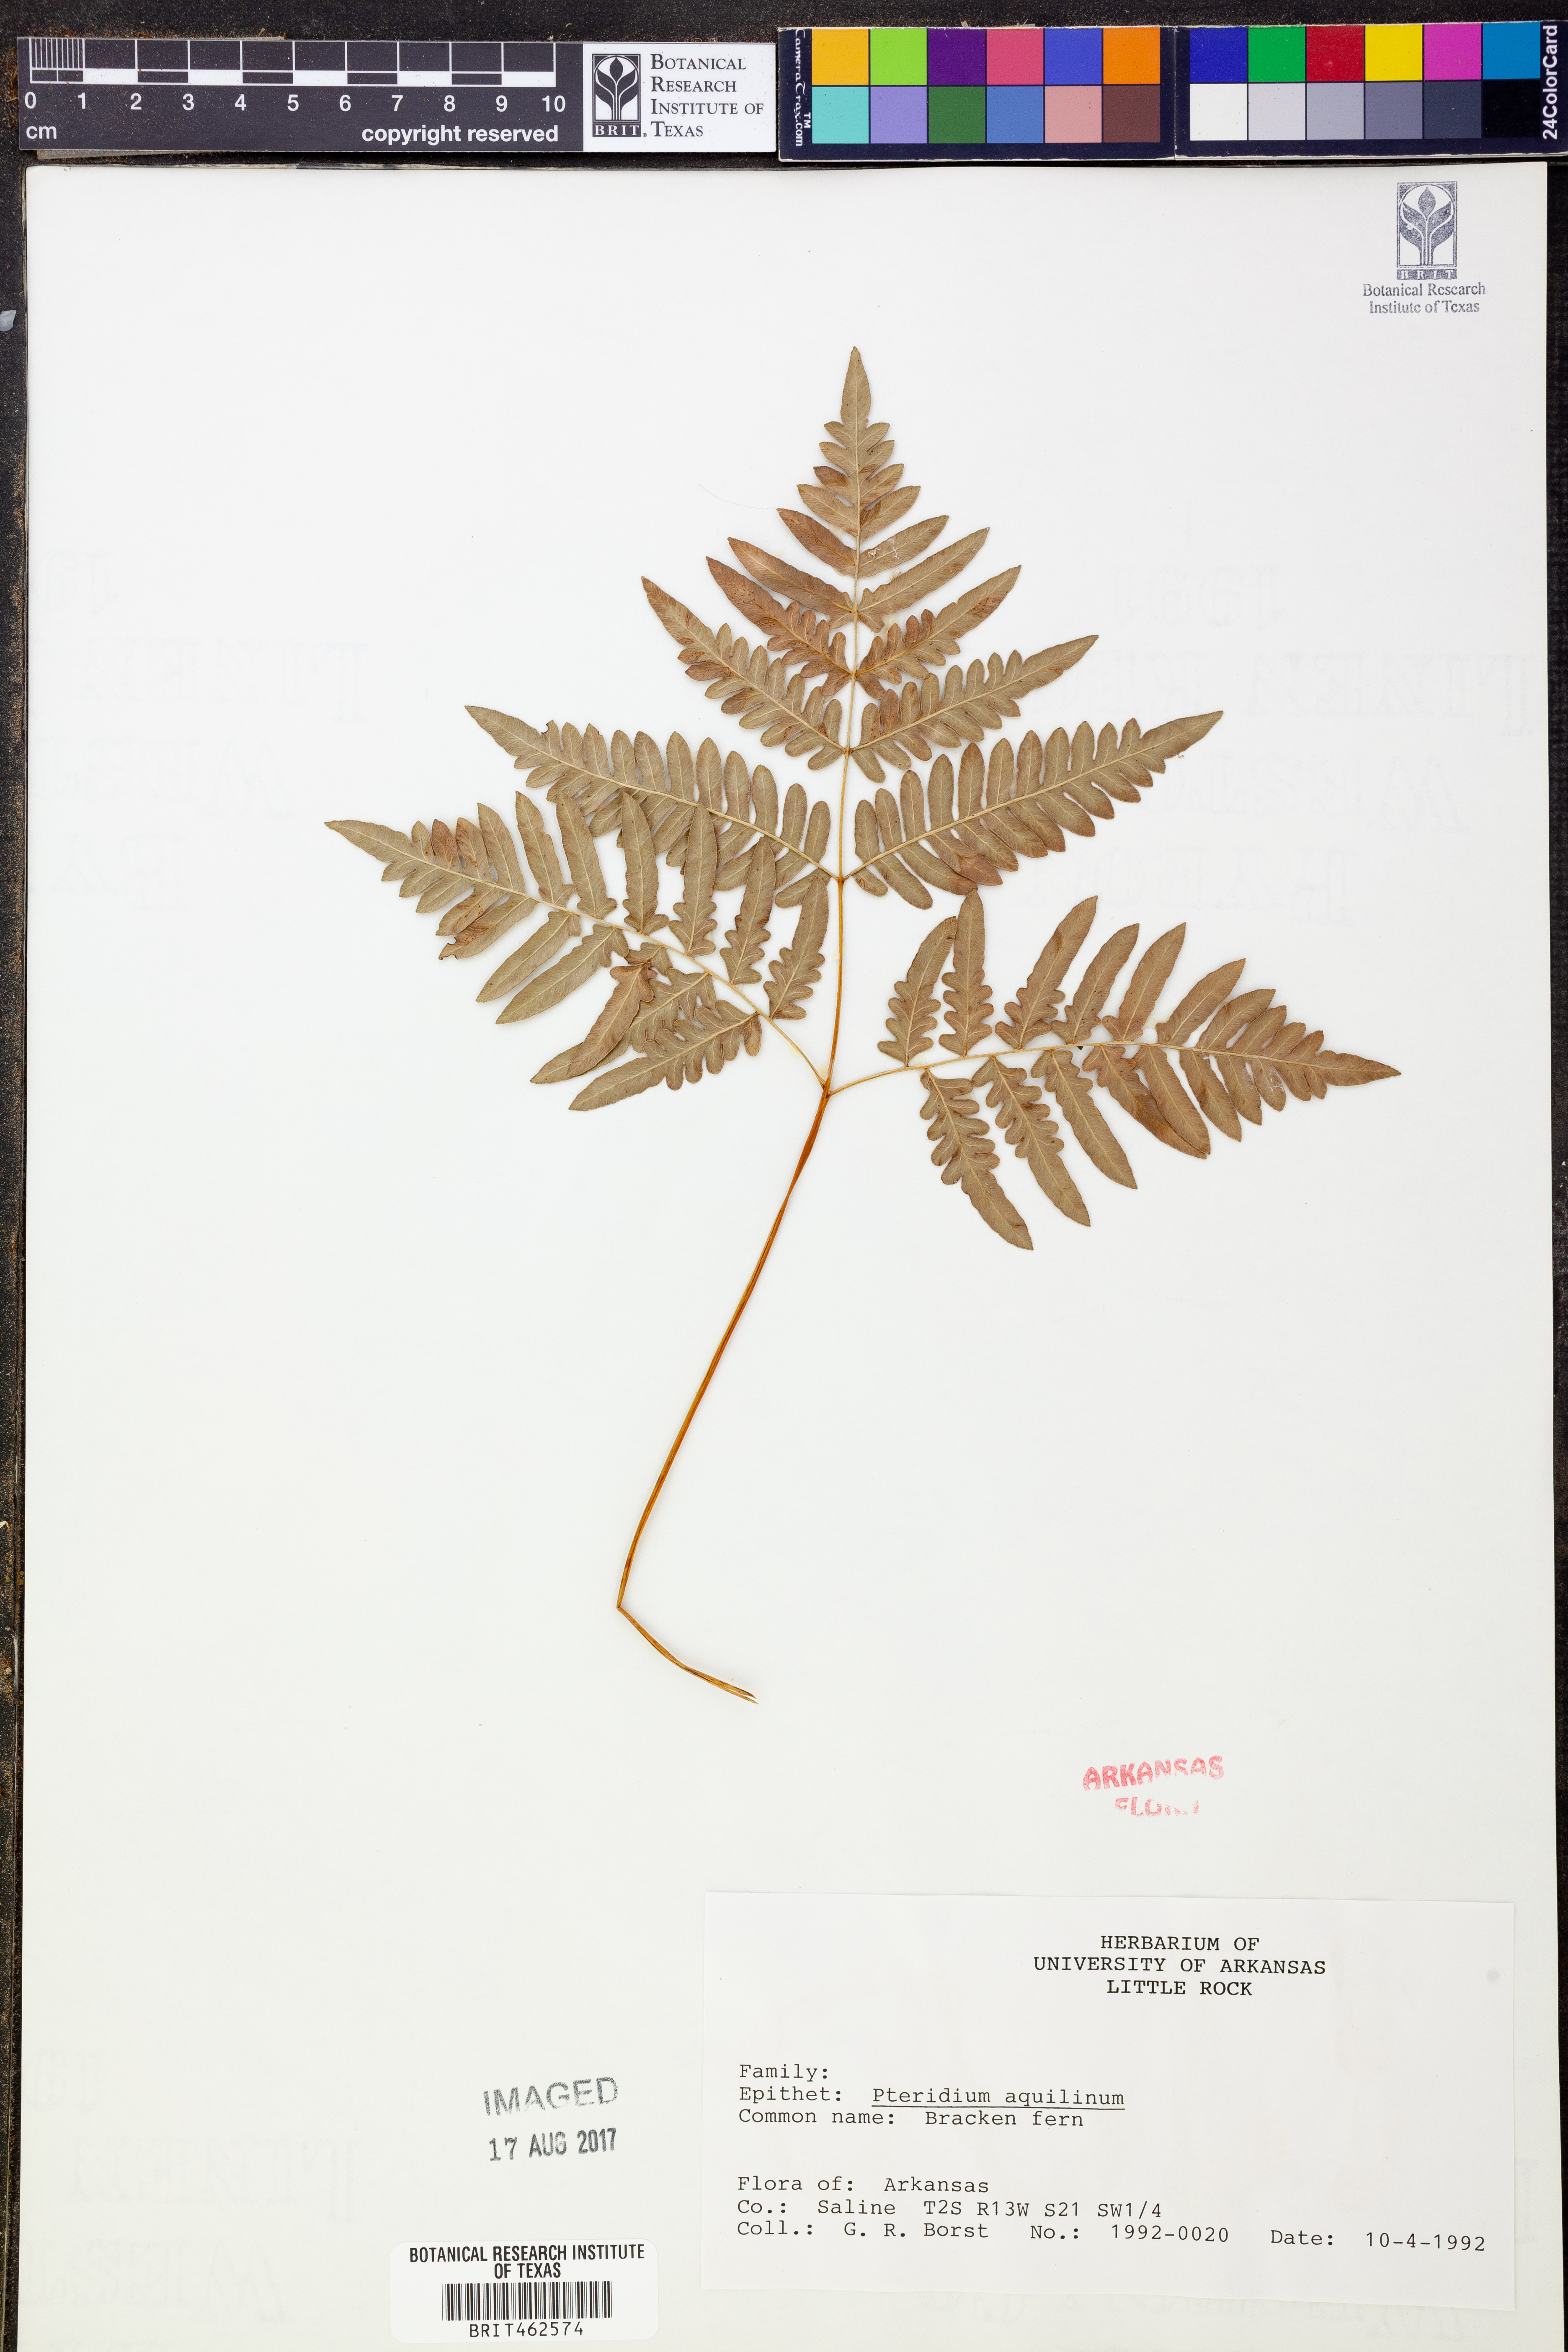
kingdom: Plantae
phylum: Tracheophyta
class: Polypodiopsida
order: Polypodiales
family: Dennstaedtiaceae
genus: Pteridium
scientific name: Pteridium aquilinum
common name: Bracken
